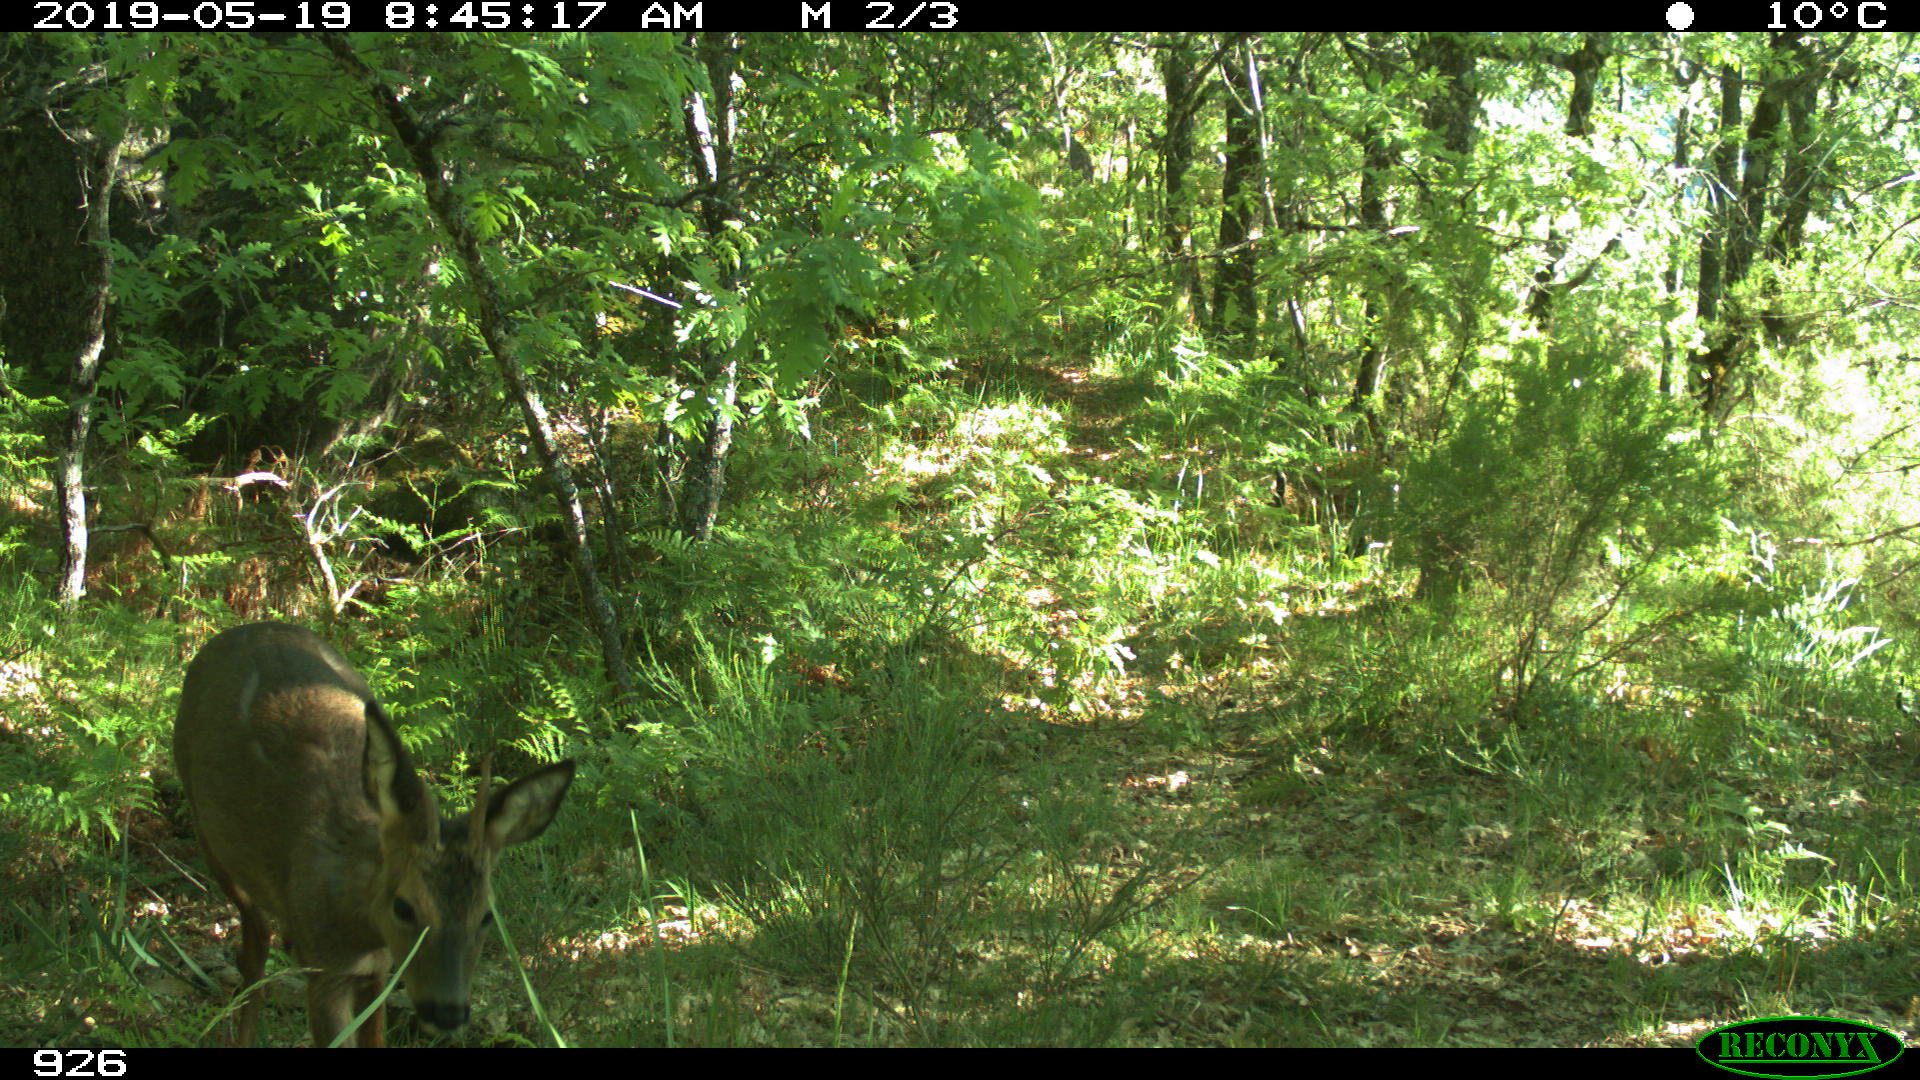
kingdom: Animalia
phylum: Chordata
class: Mammalia
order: Artiodactyla
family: Cervidae
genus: Capreolus
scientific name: Capreolus capreolus
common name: Western roe deer
